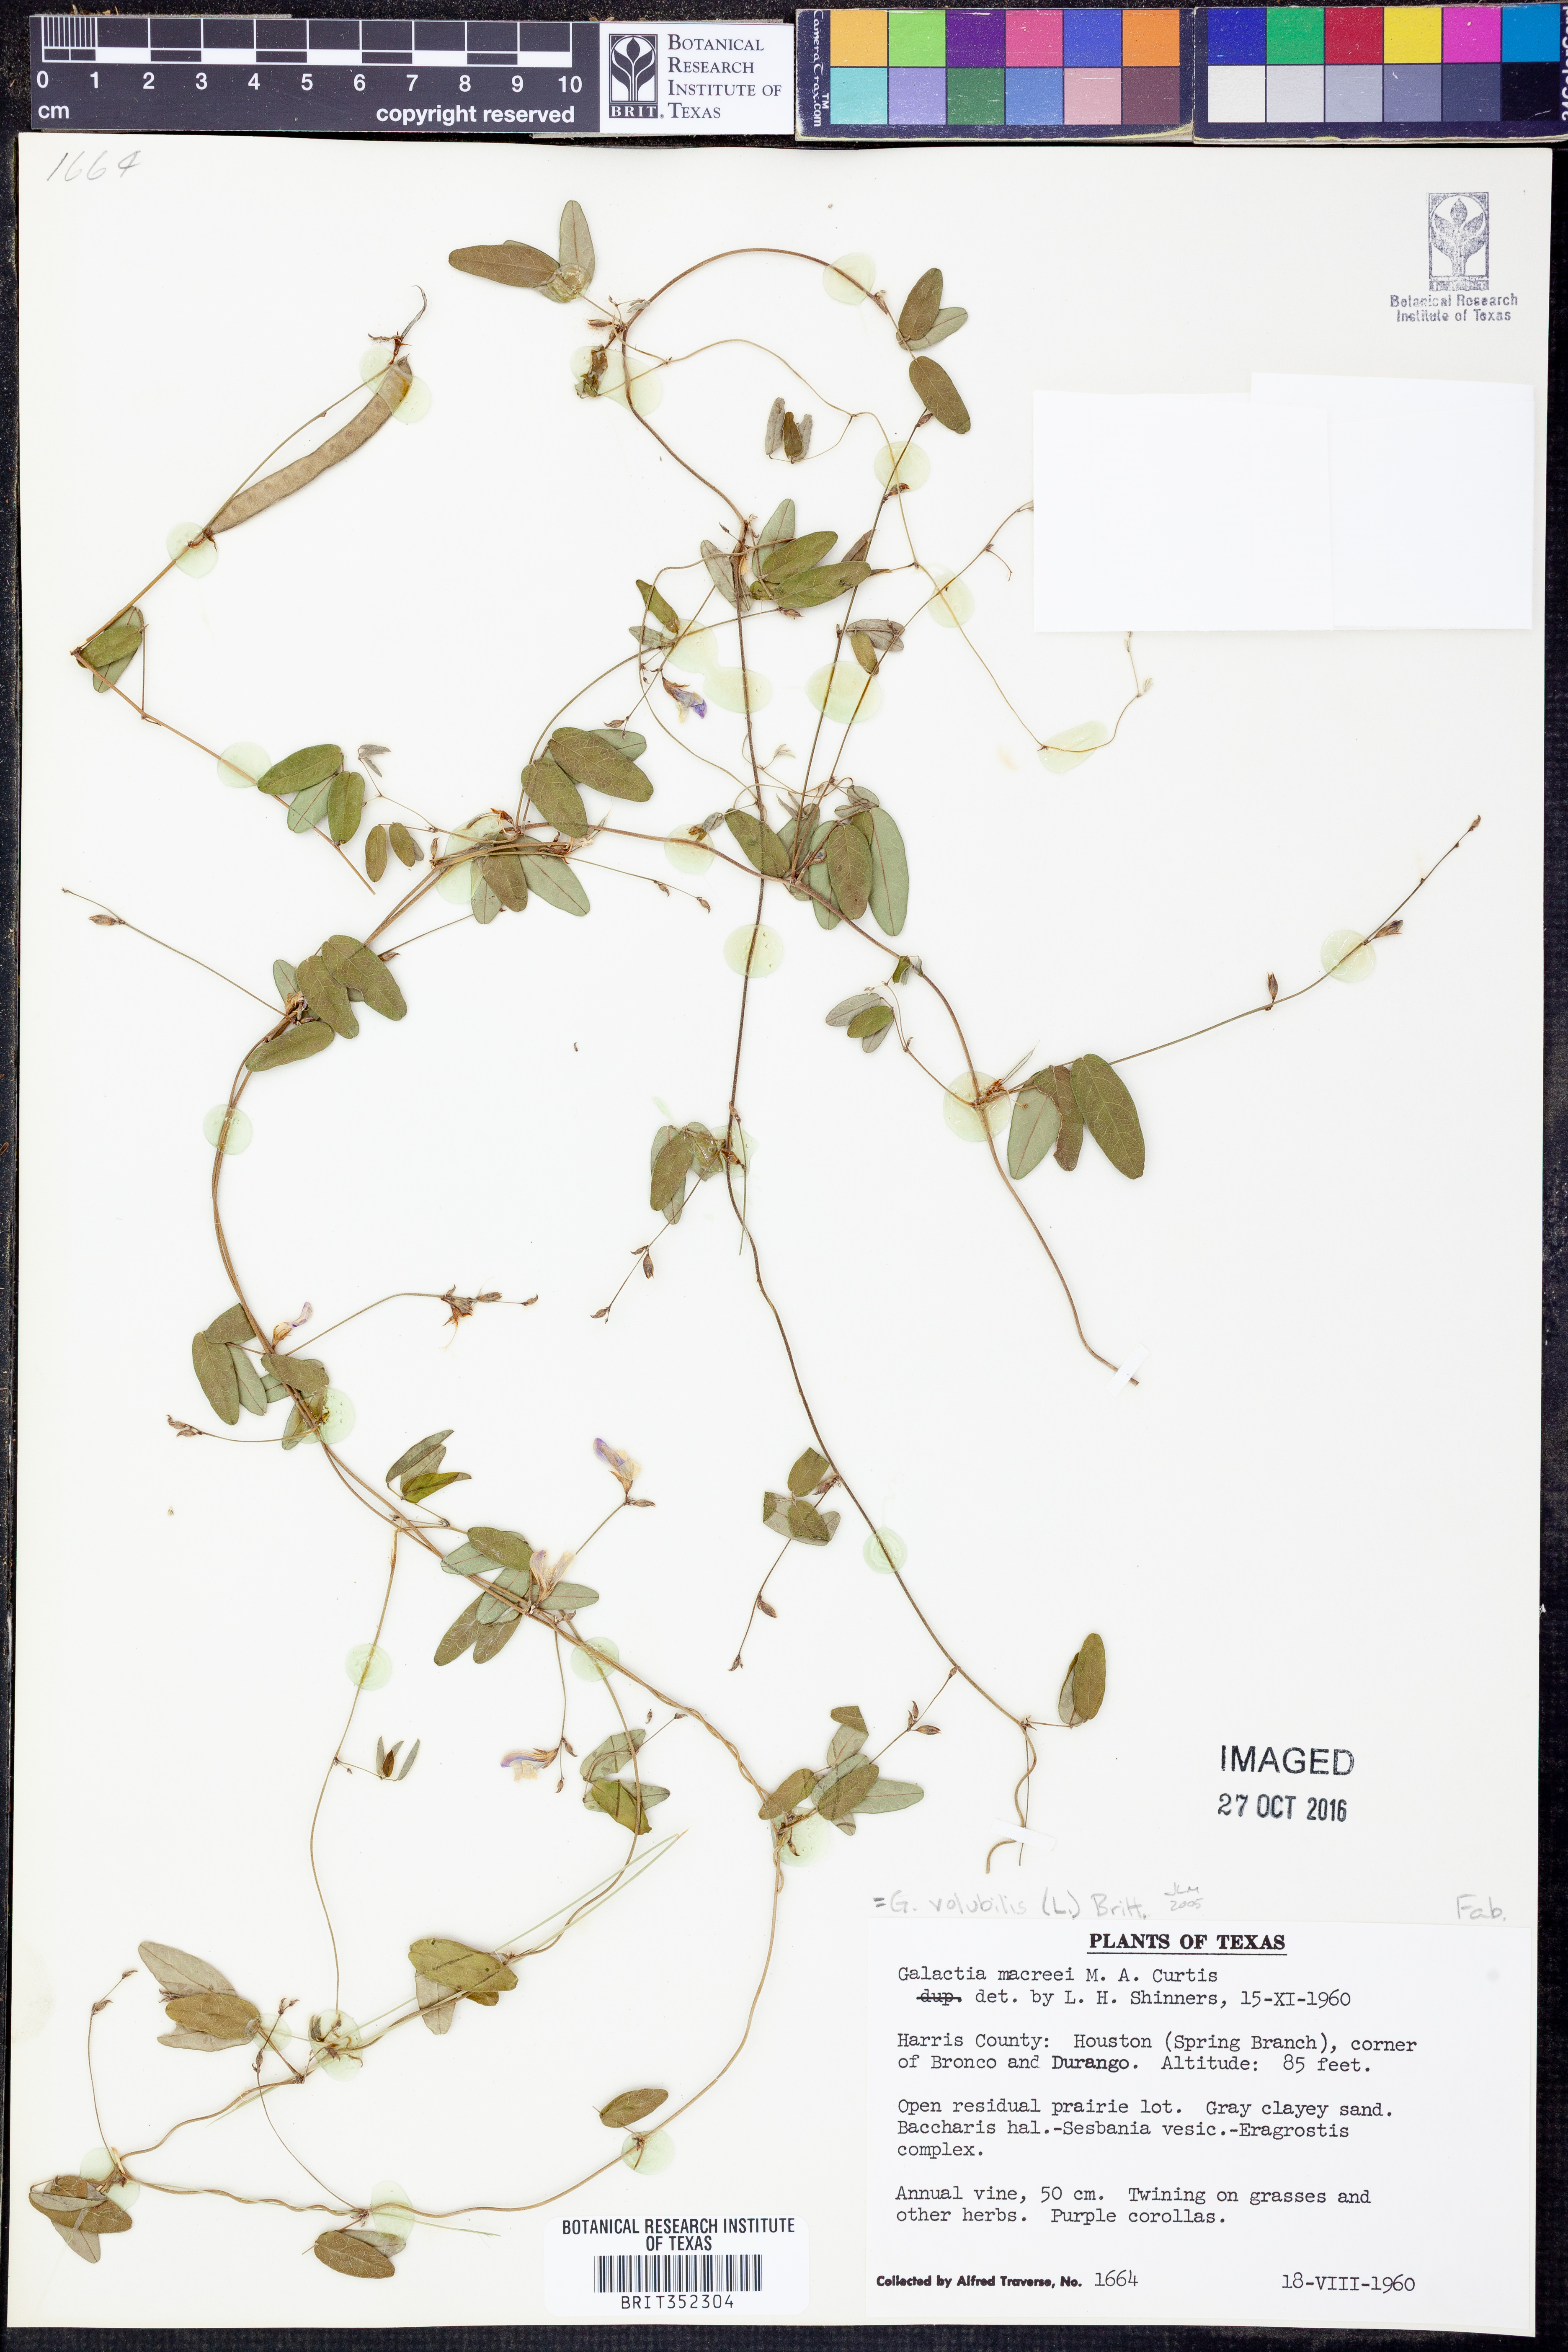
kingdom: Plantae
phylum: Tracheophyta
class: Magnoliopsida
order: Fabales
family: Fabaceae
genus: Galactia
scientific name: Galactia volubilis
